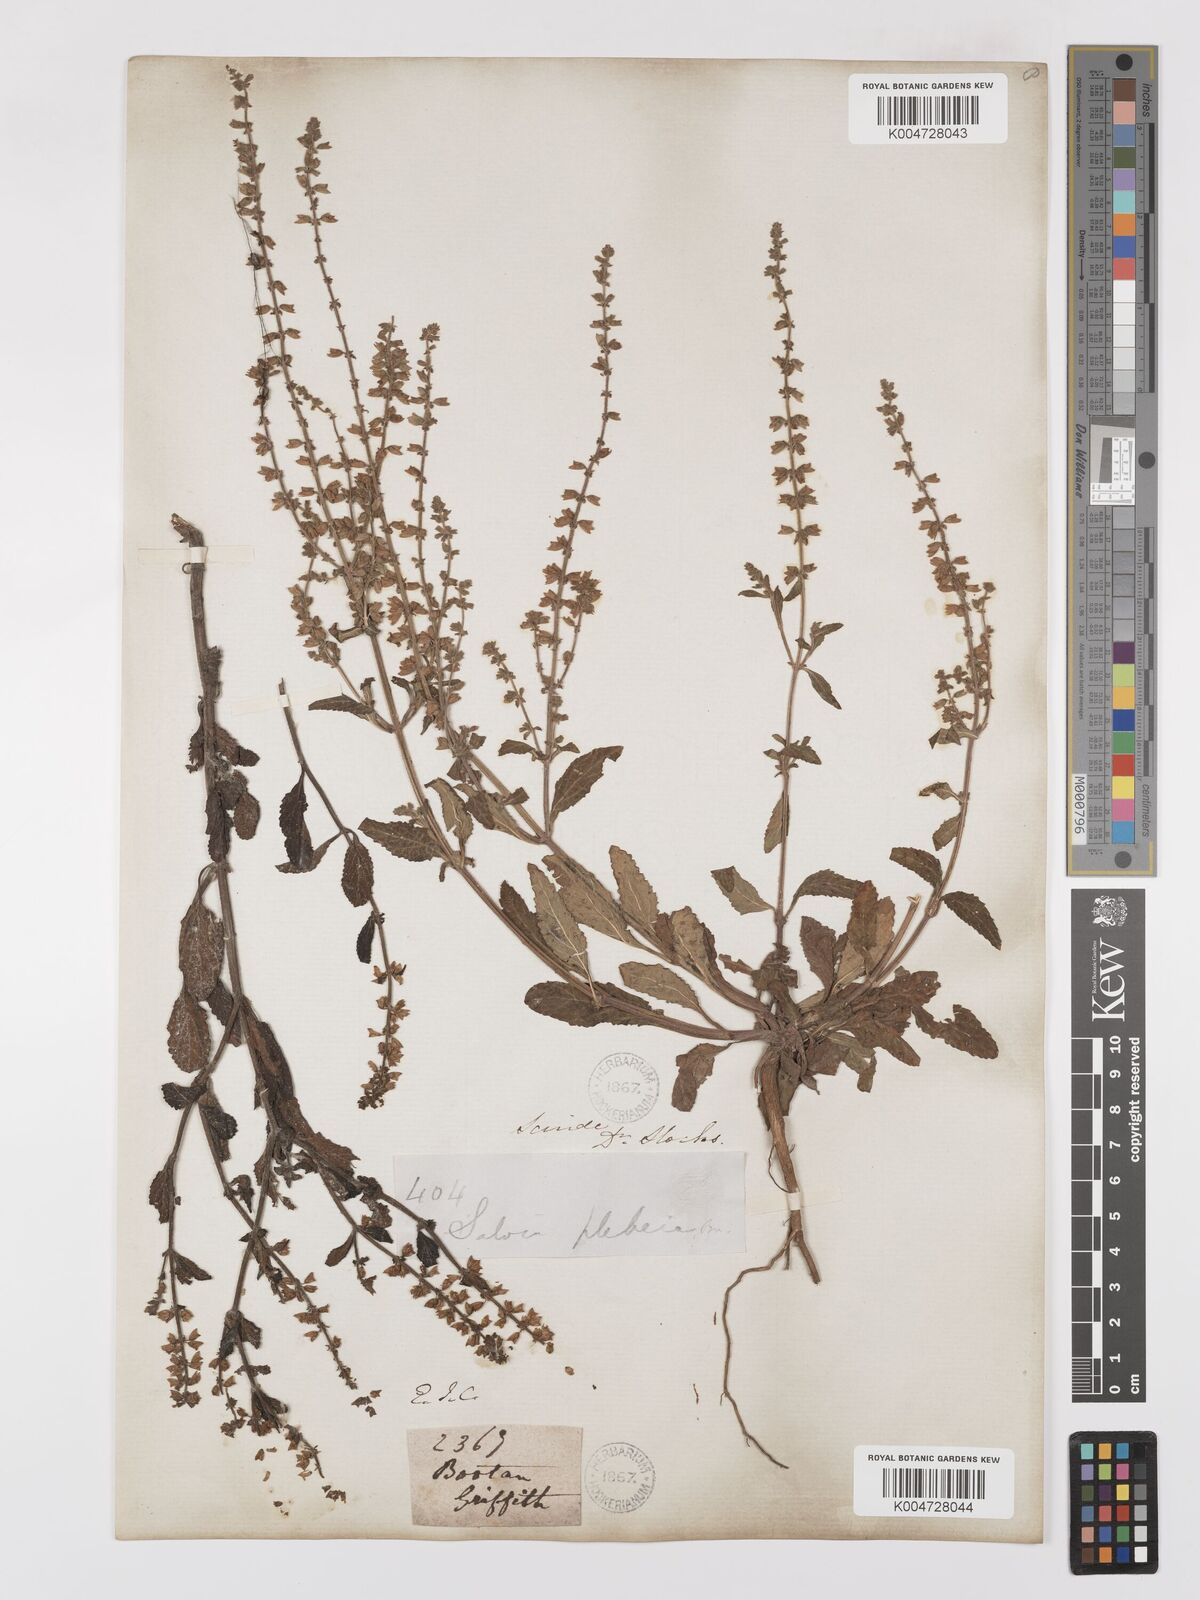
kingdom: Plantae
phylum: Tracheophyta
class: Magnoliopsida
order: Lamiales
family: Lamiaceae
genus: Salvia
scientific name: Salvia plebeia
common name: Australian sage
